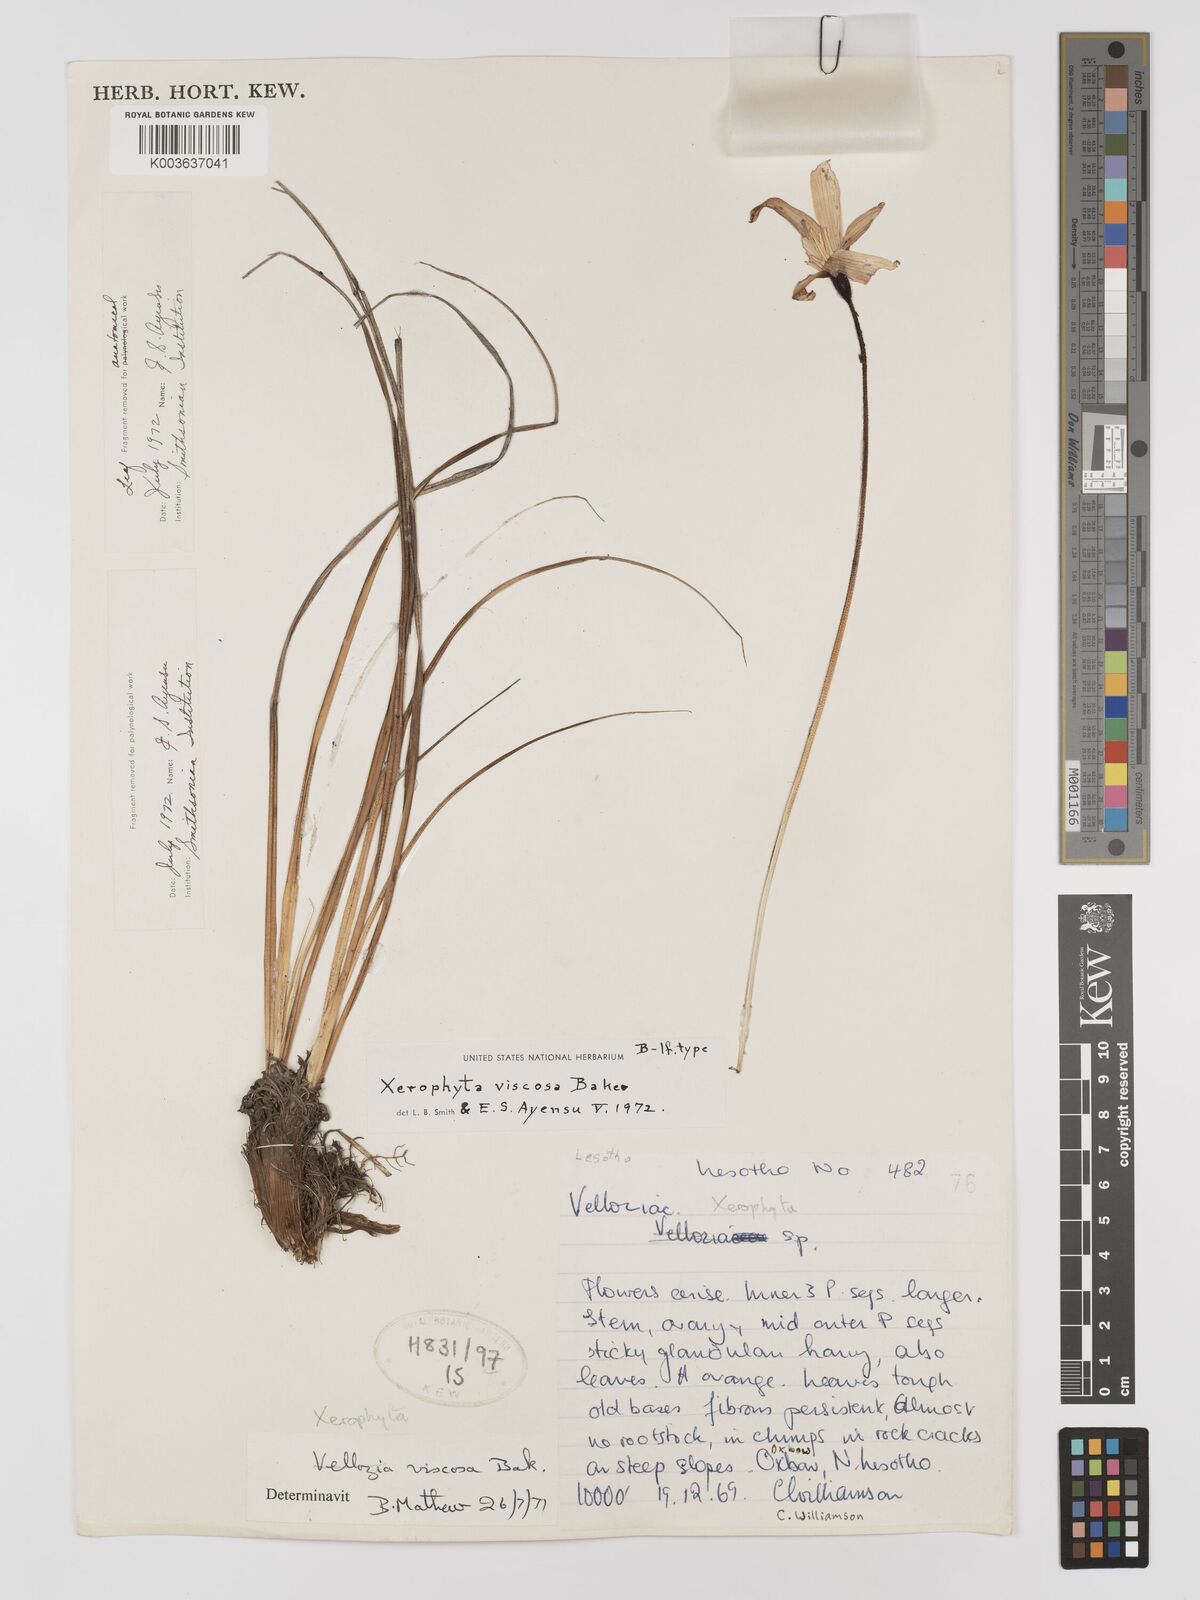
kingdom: Plantae
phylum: Tracheophyta
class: Liliopsida
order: Pandanales
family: Velloziaceae
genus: Xerophyta
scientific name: Xerophyta viscosa
